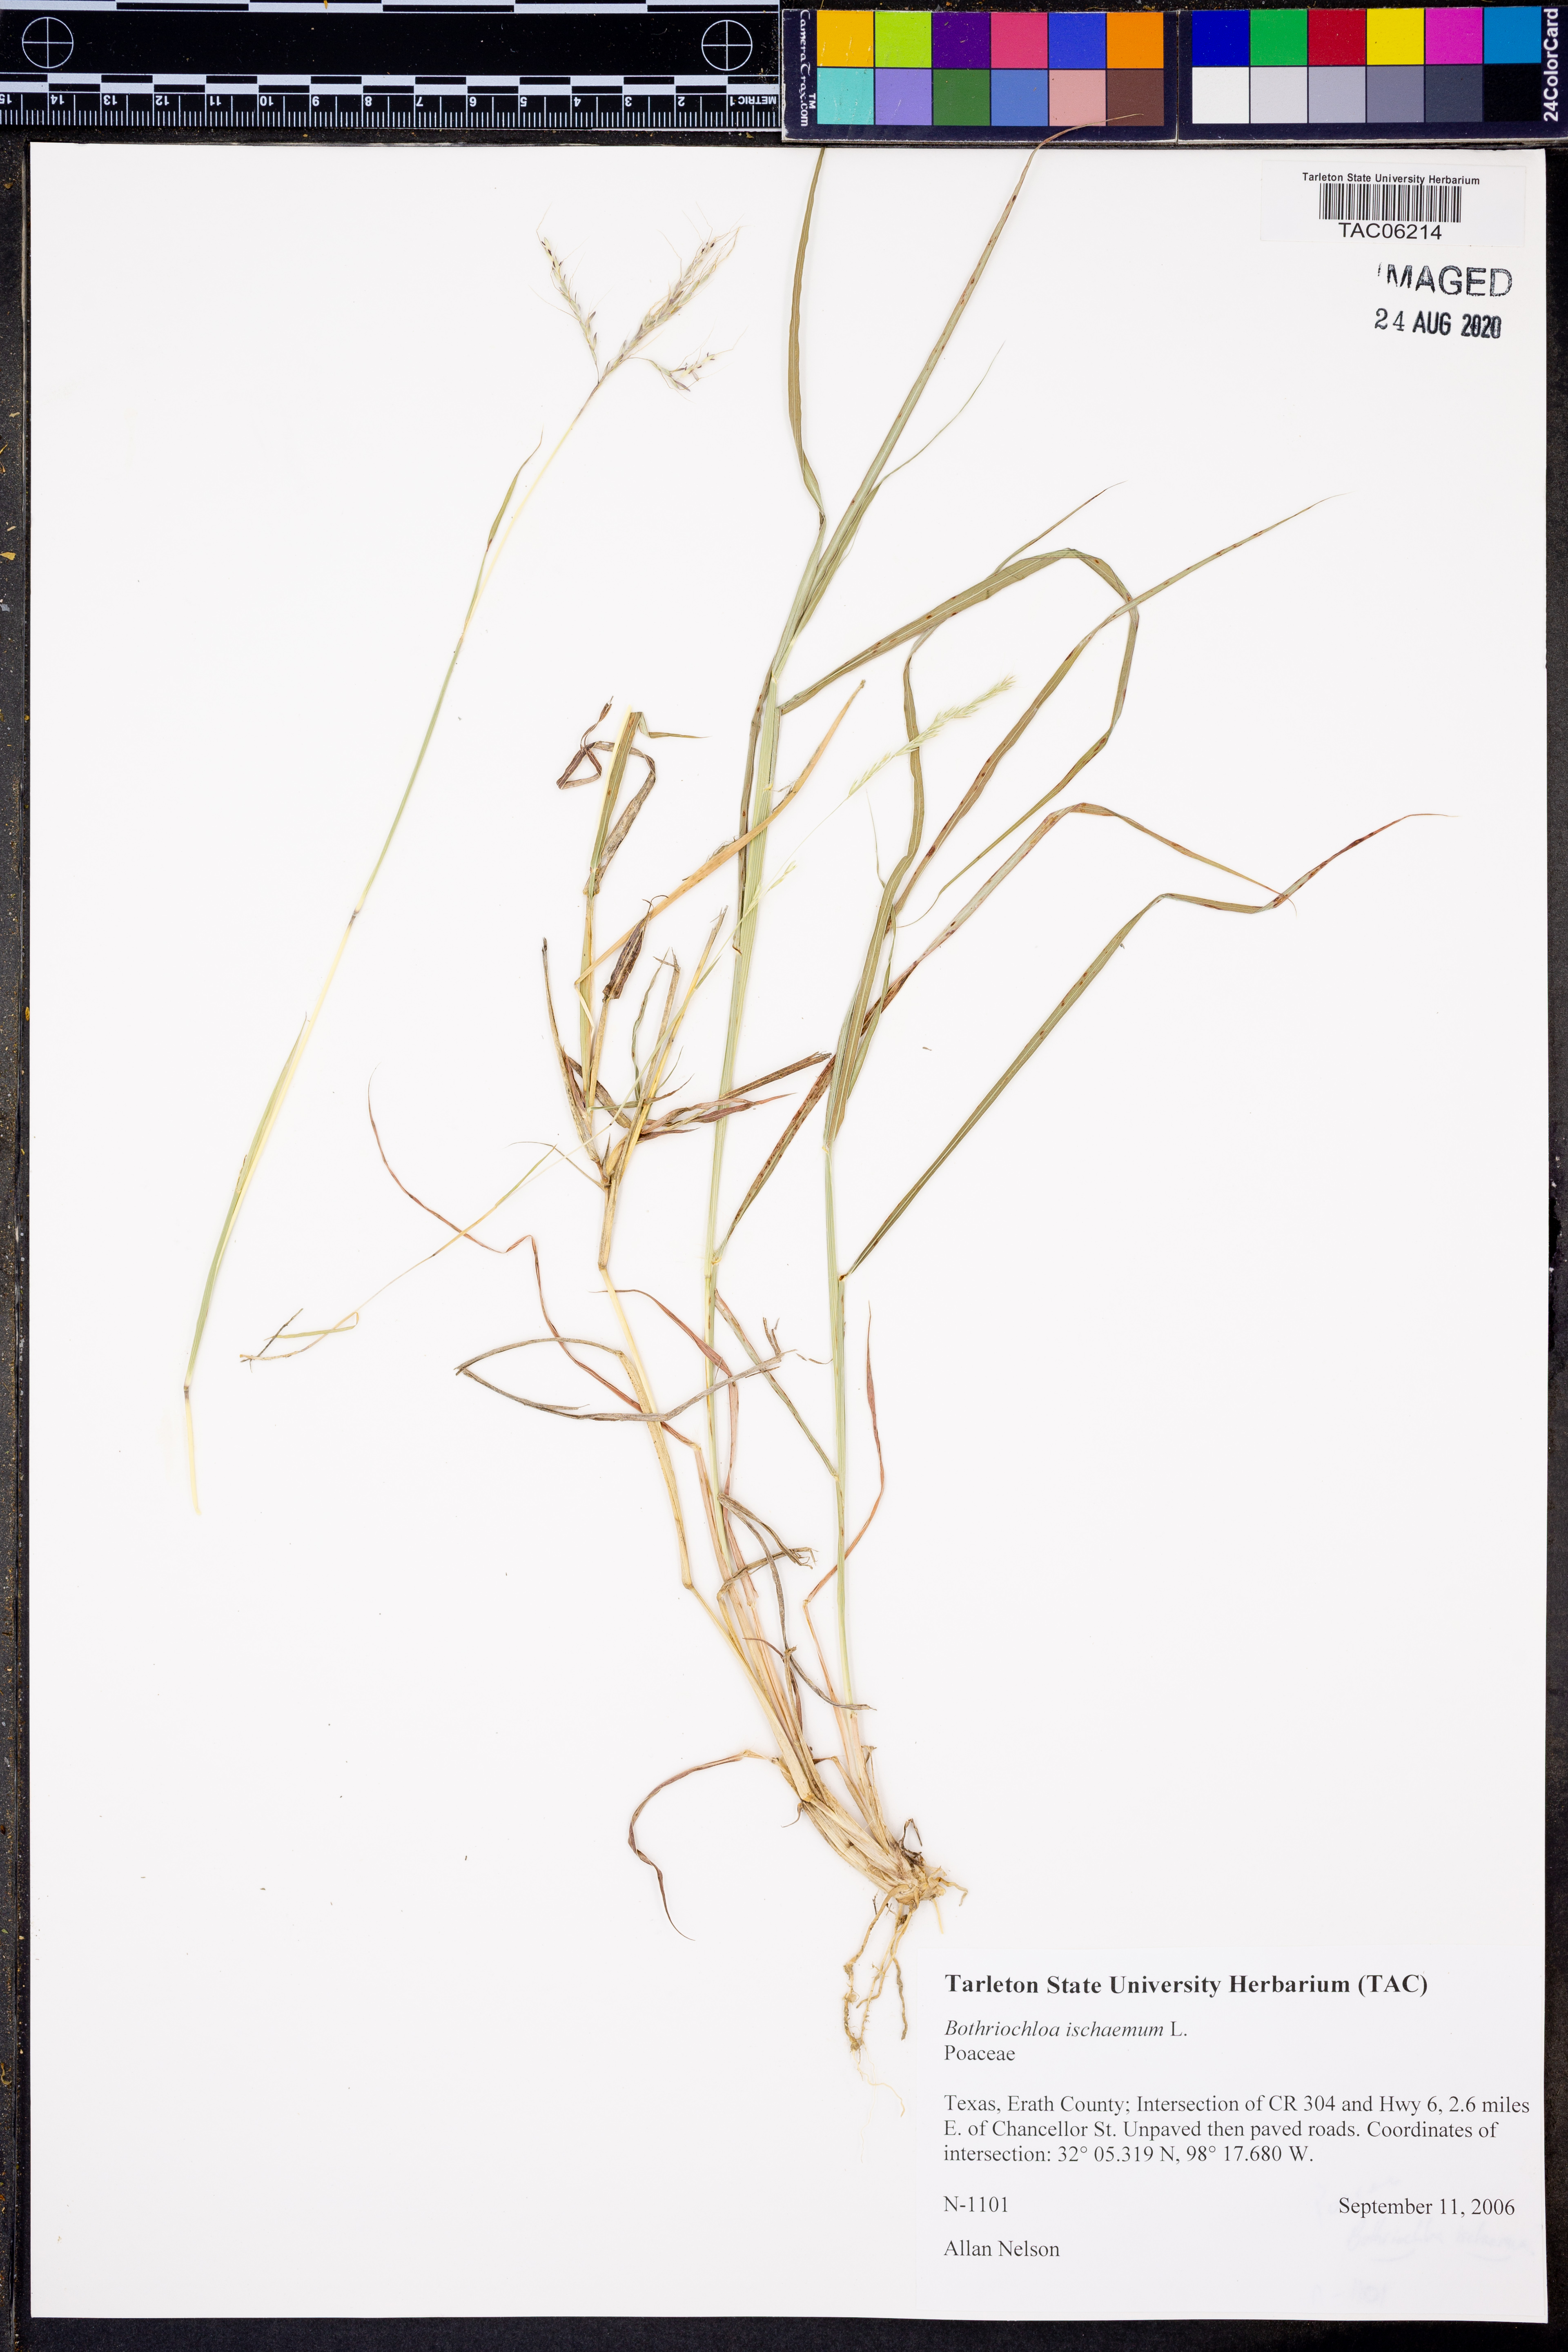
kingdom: Plantae
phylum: Tracheophyta
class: Liliopsida
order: Poales
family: Poaceae
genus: Bothriochloa
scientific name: Bothriochloa ischaemum
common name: Yellow bluestem
